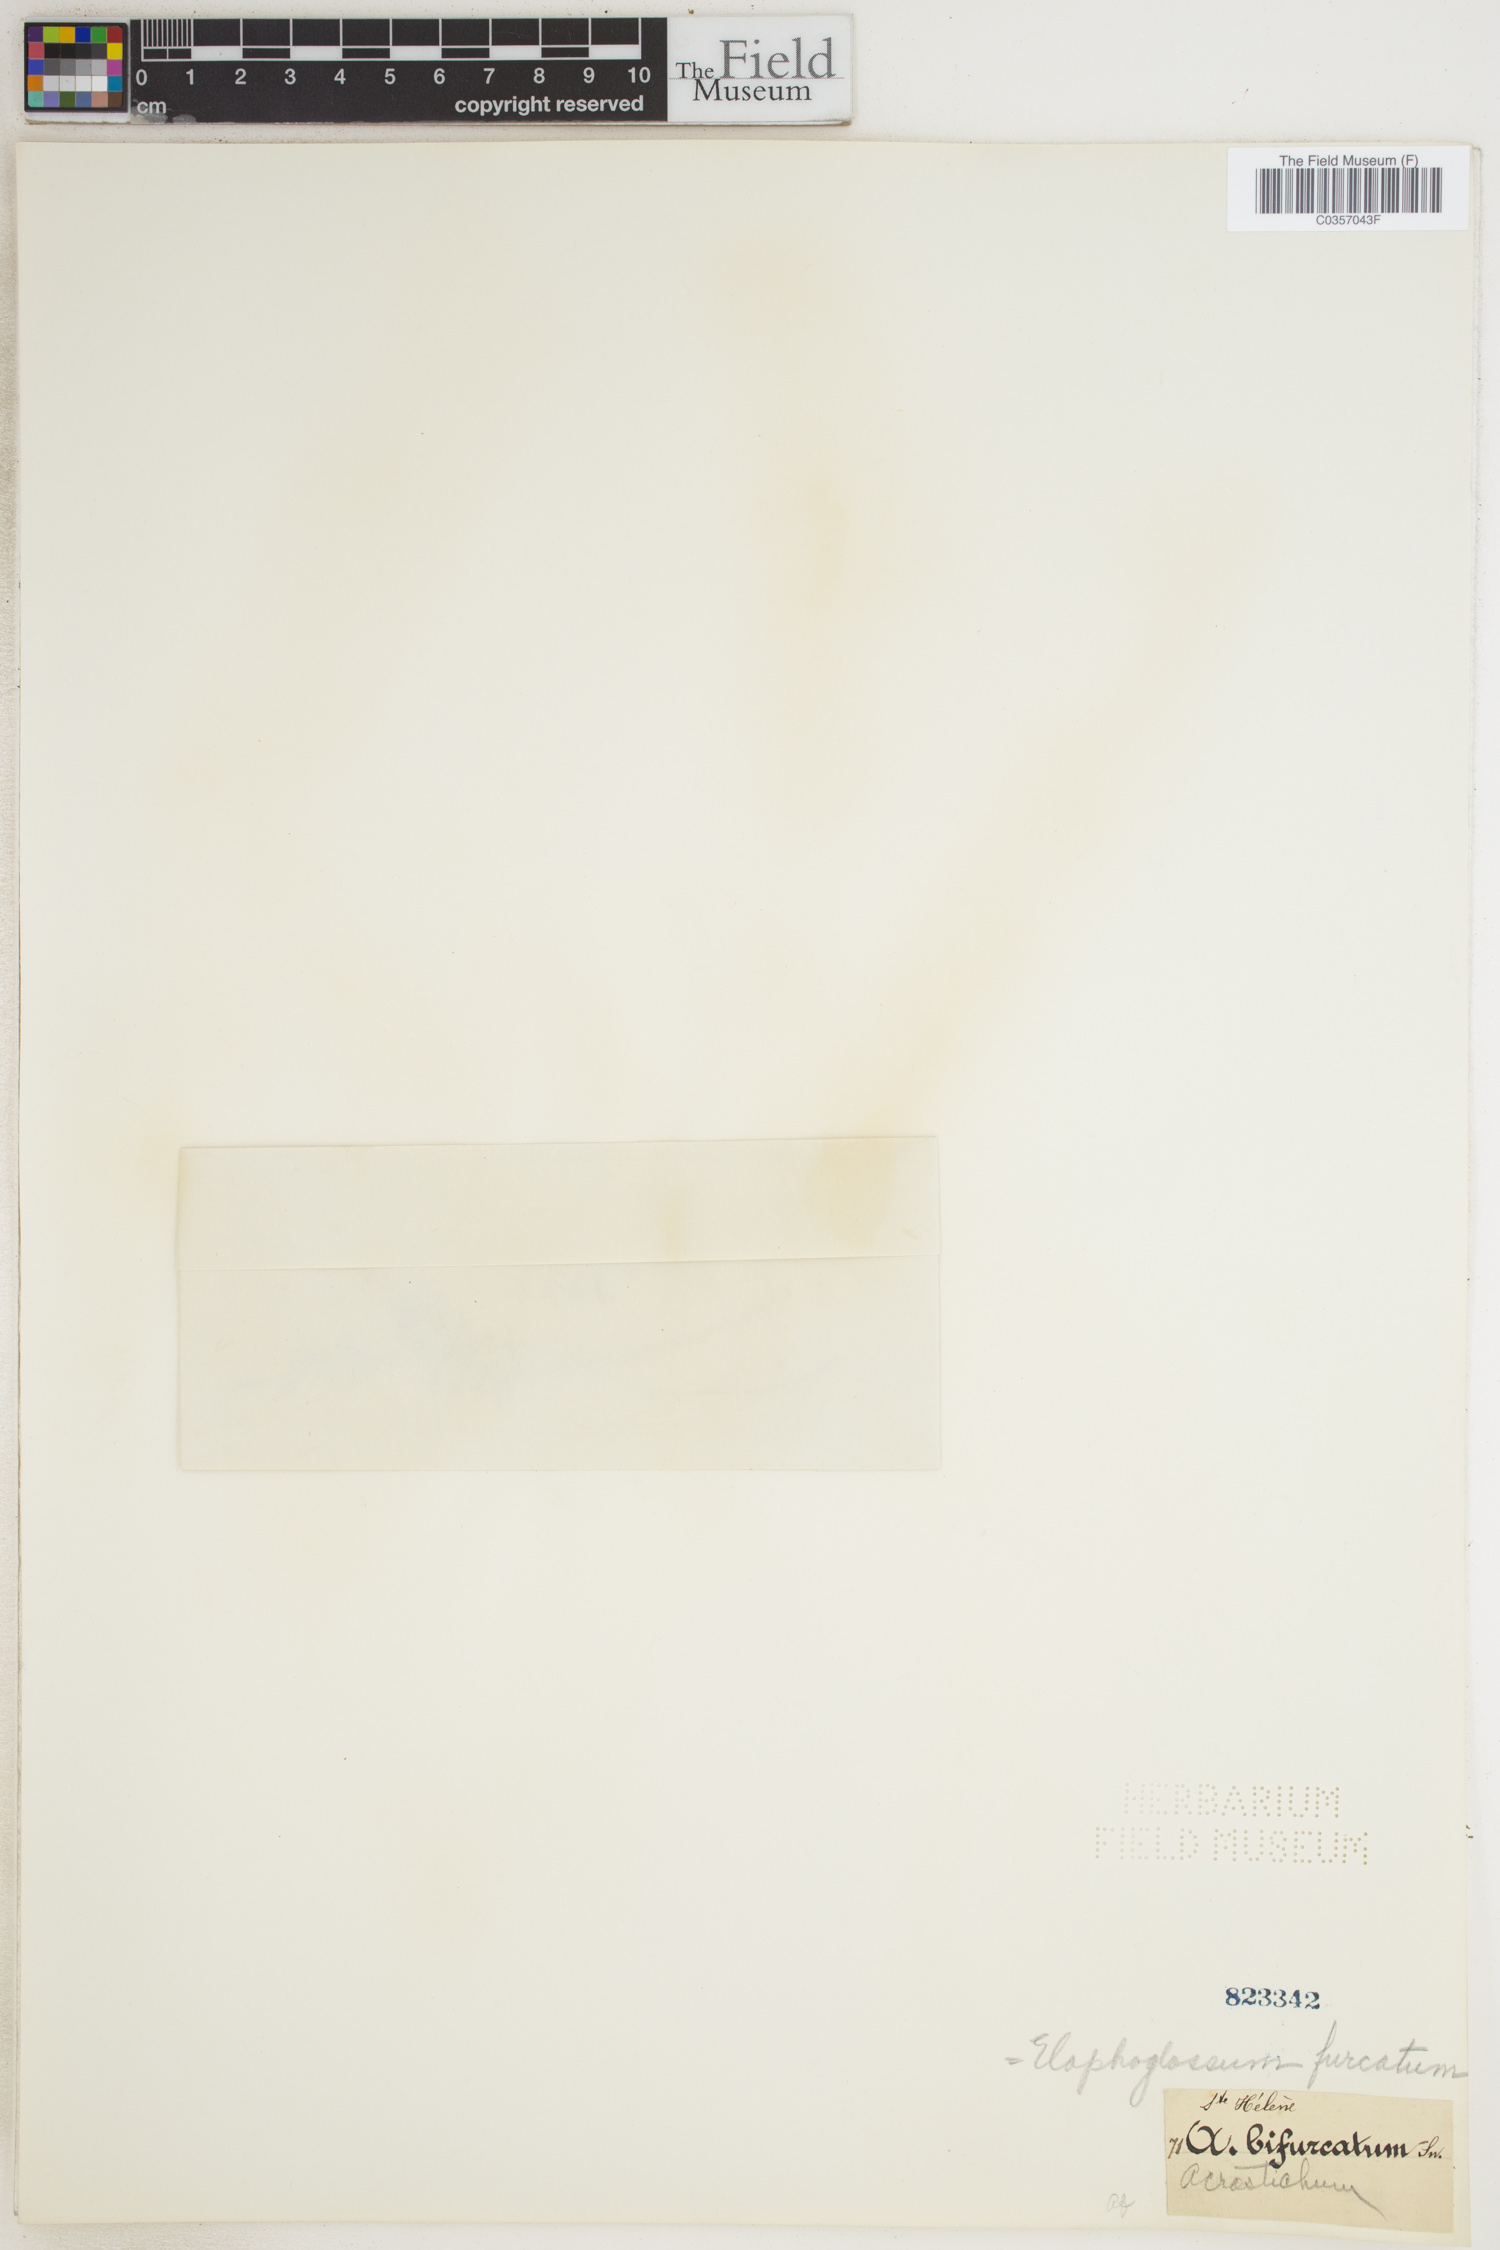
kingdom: Plantae
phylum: Tracheophyta
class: Polypodiopsida
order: Polypodiales
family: Dryopteridaceae
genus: Elaphoglossum
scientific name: Elaphoglossum furcatum
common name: Mossy fern
